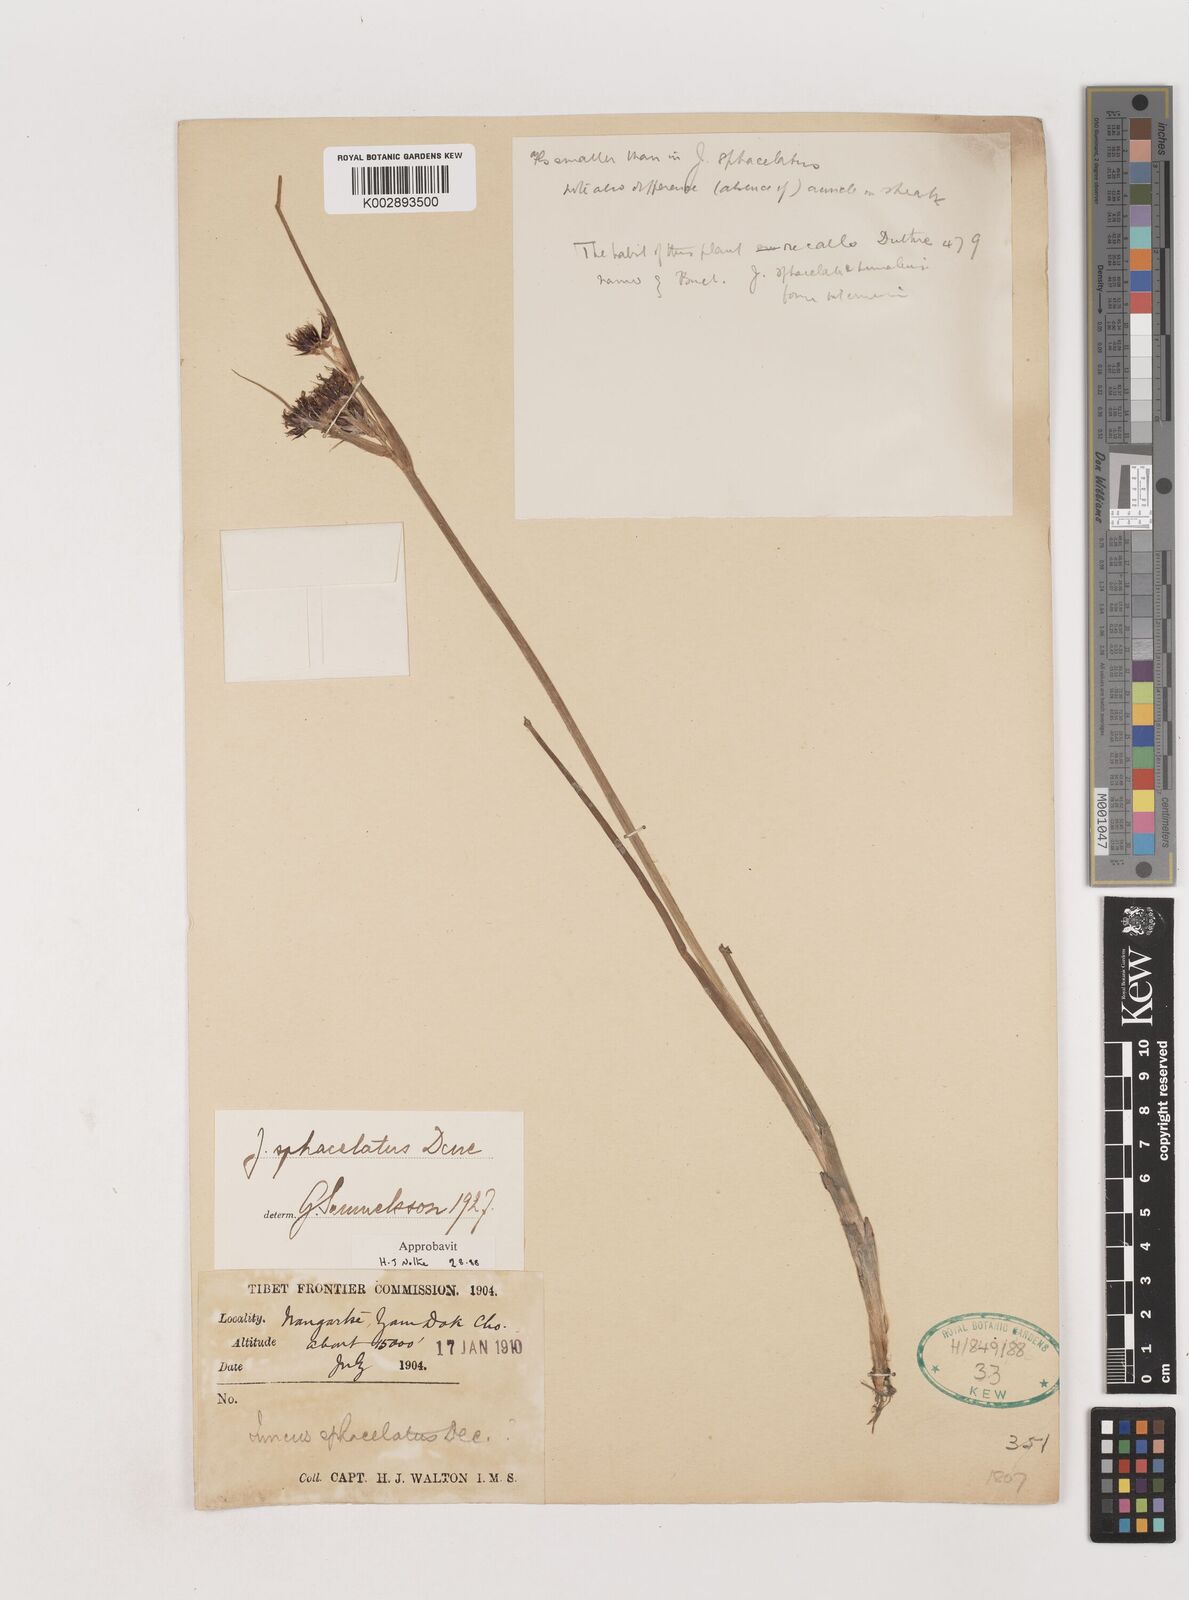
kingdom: Plantae
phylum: Tracheophyta
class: Liliopsida
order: Poales
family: Juncaceae
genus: Juncus
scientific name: Juncus sphacelatus
